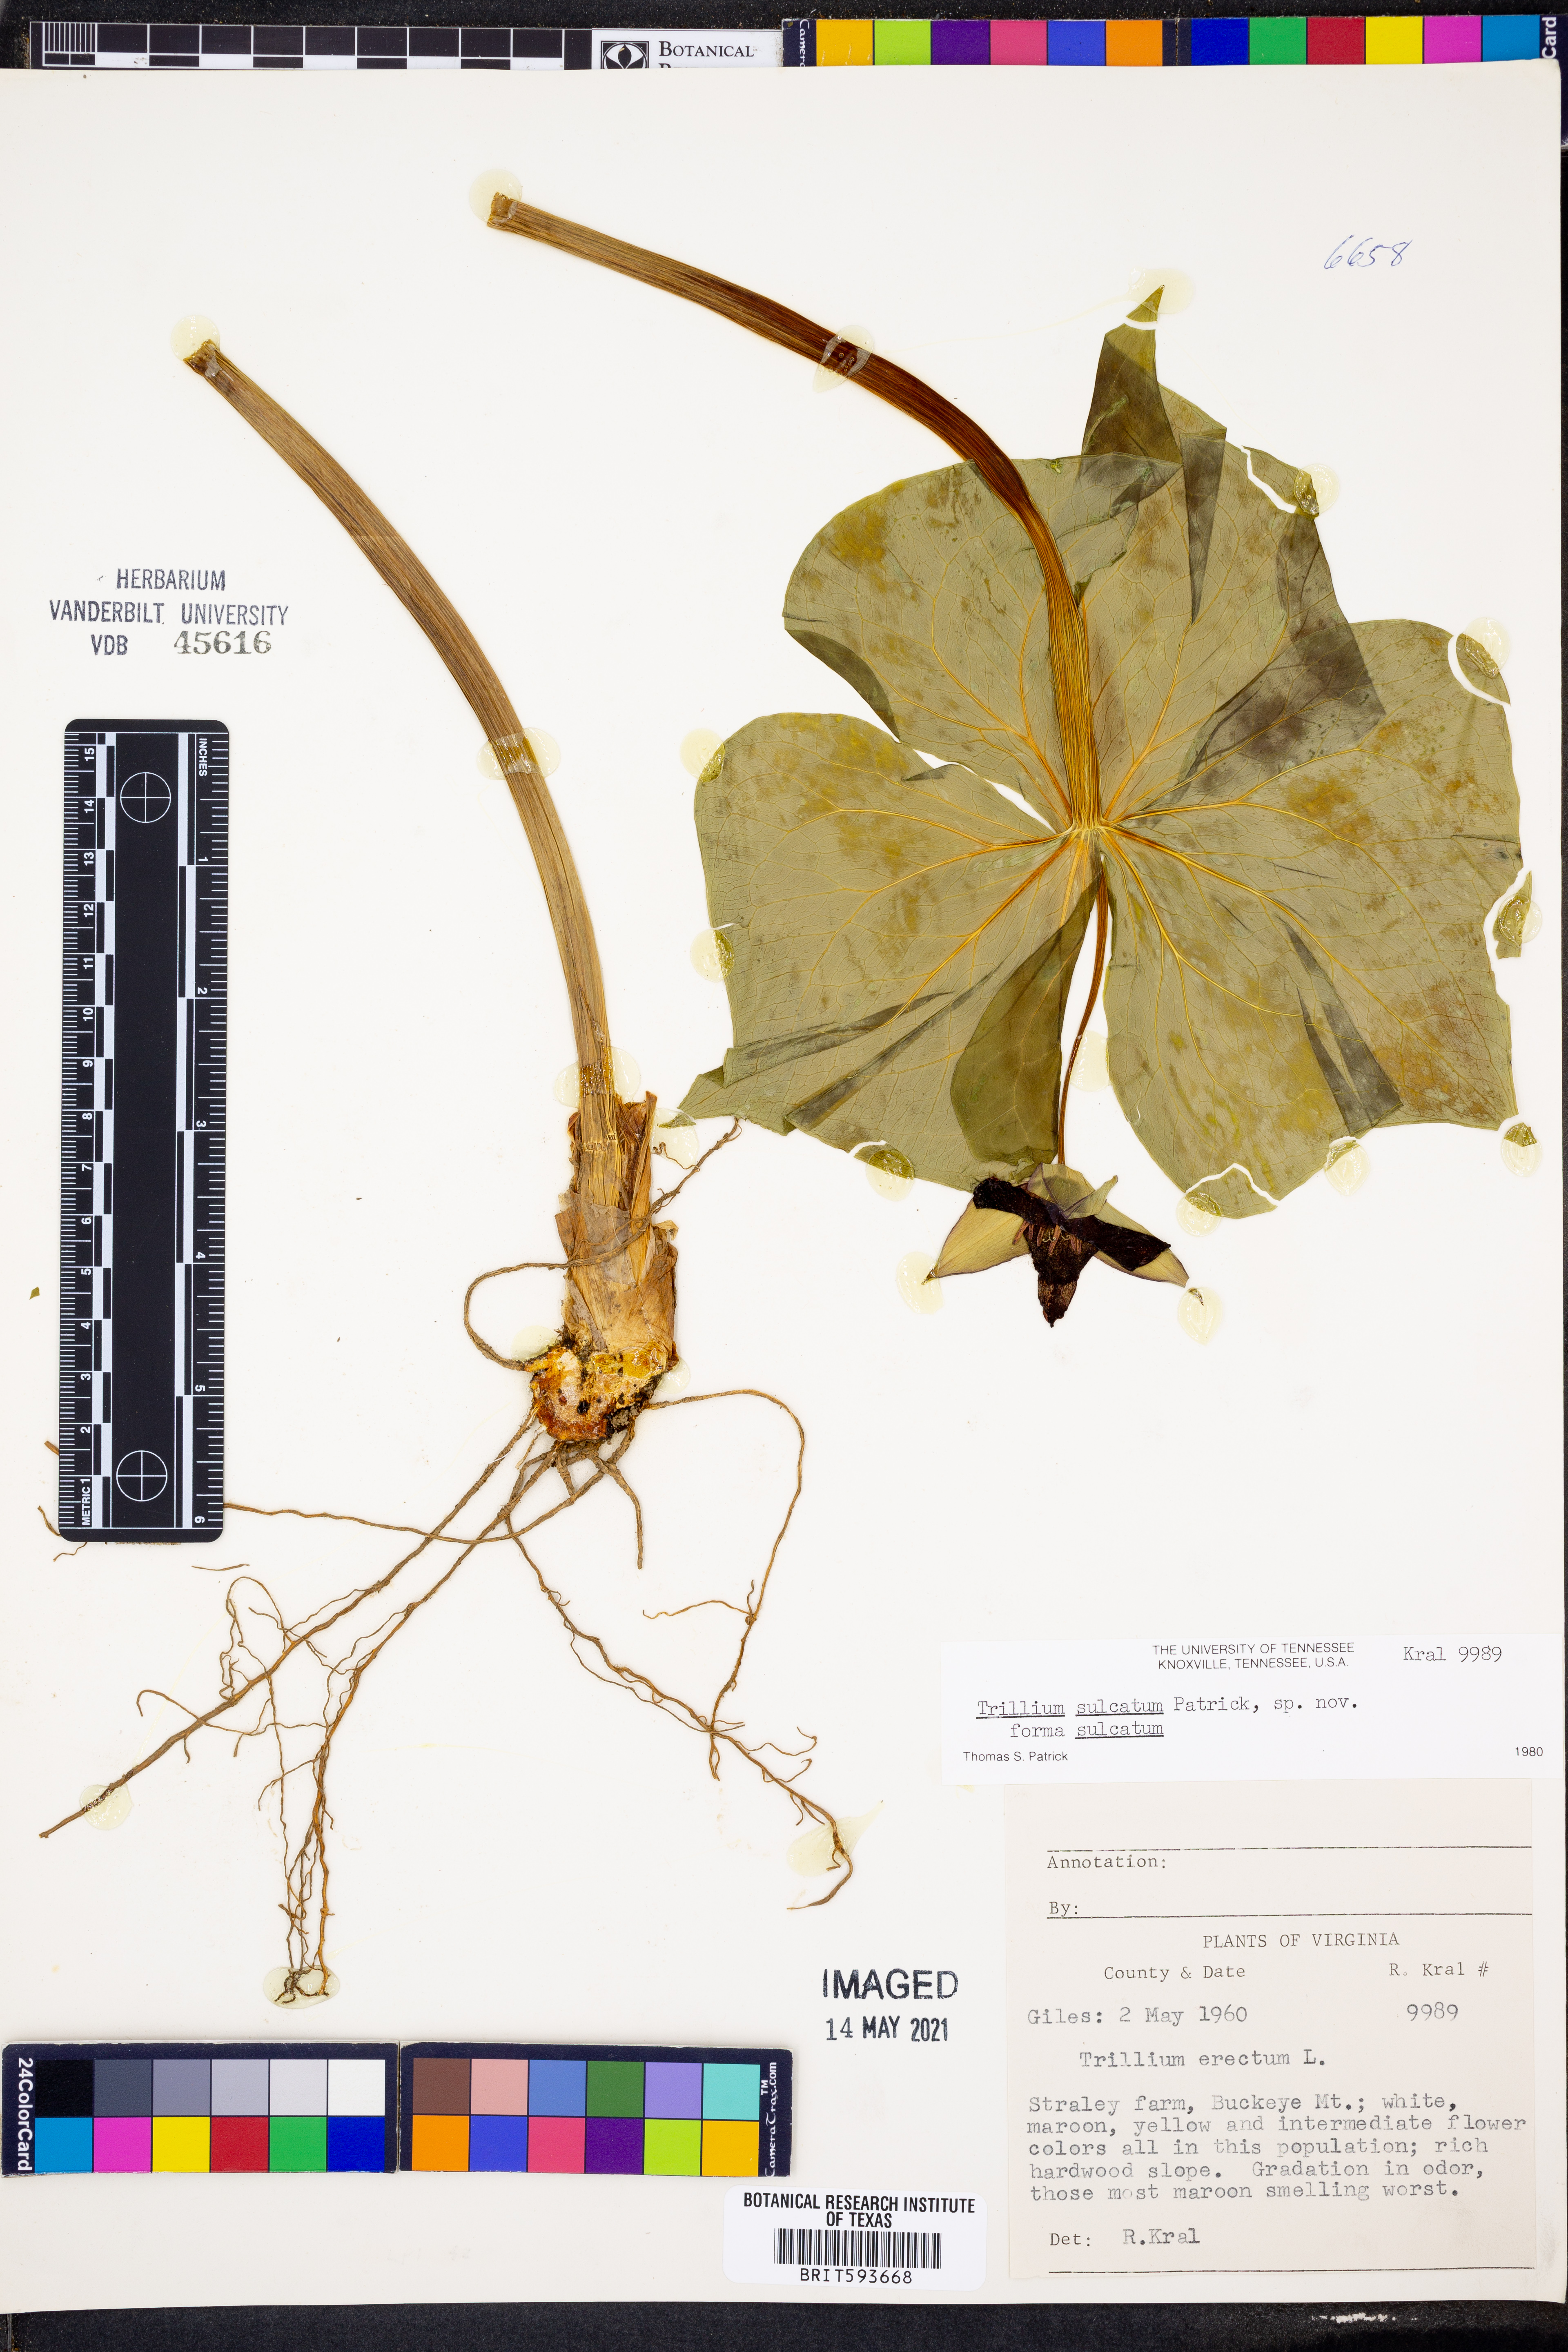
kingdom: Plantae
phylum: Tracheophyta
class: Liliopsida
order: Liliales
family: Melanthiaceae
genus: Trillium
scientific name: Trillium sulcatum
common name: Barksdale trillium
